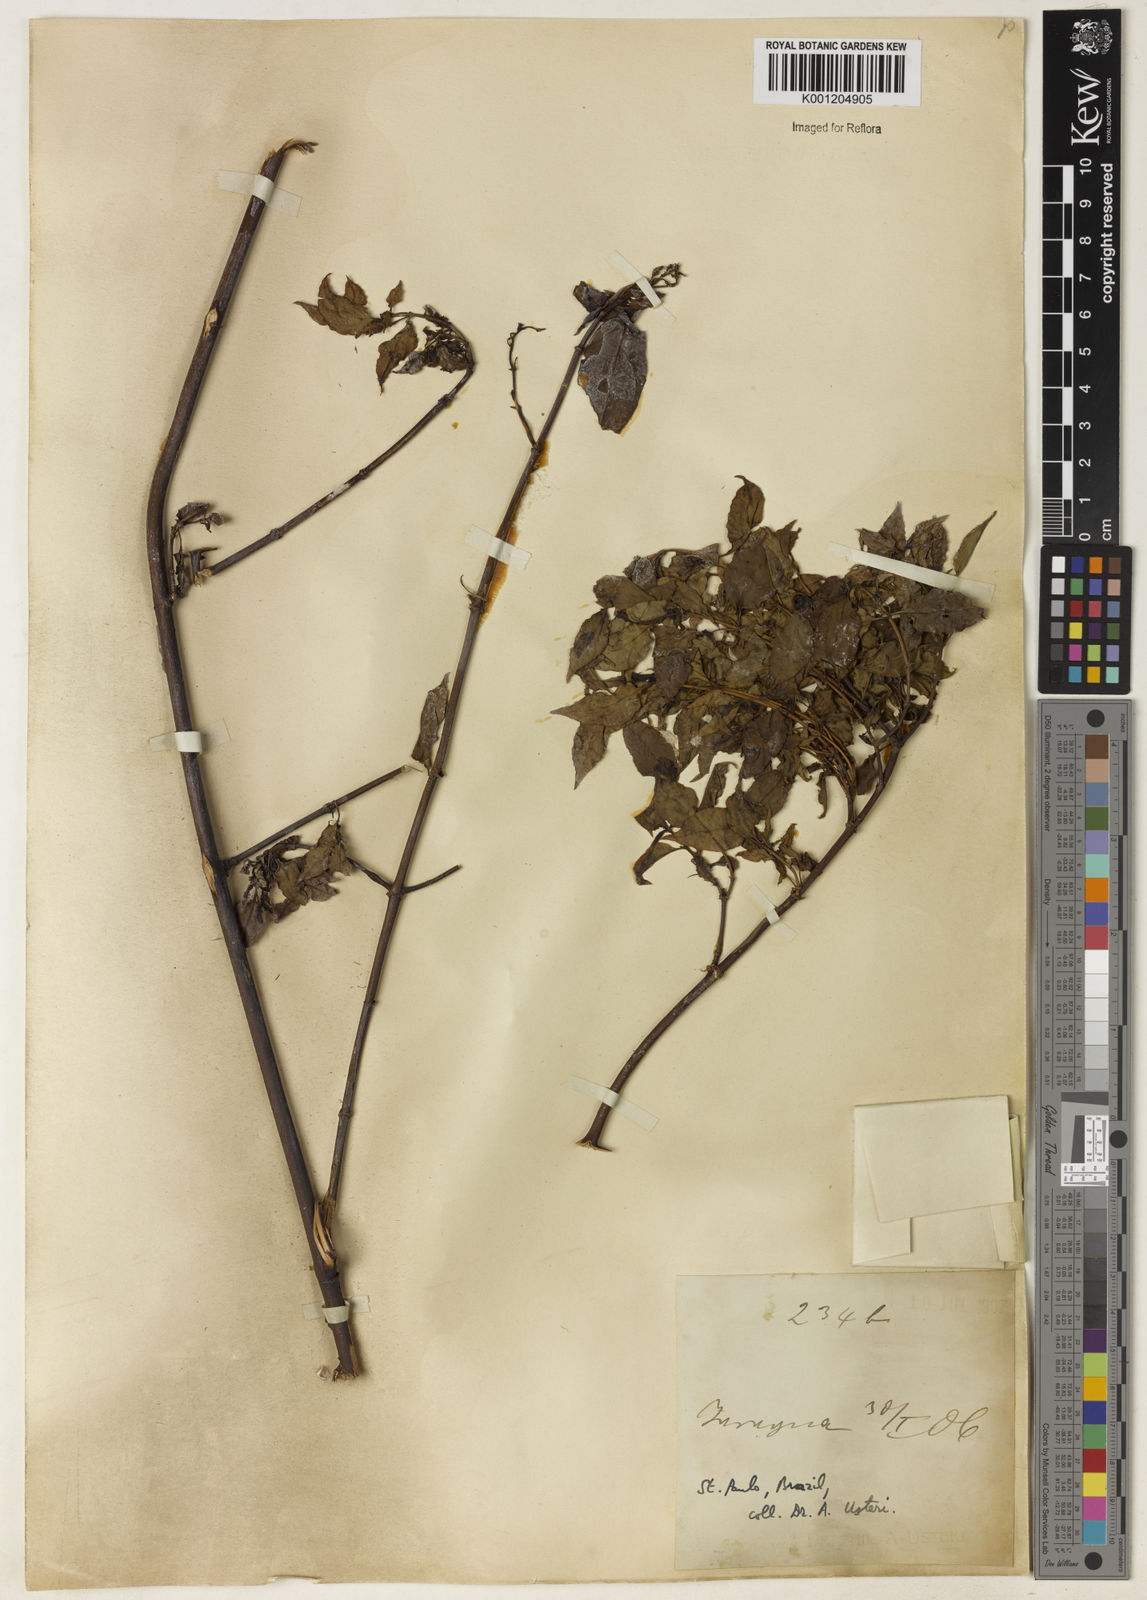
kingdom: Plantae
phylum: Tracheophyta
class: Magnoliopsida
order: Gentianales
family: Rubiaceae
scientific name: Rubiaceae
